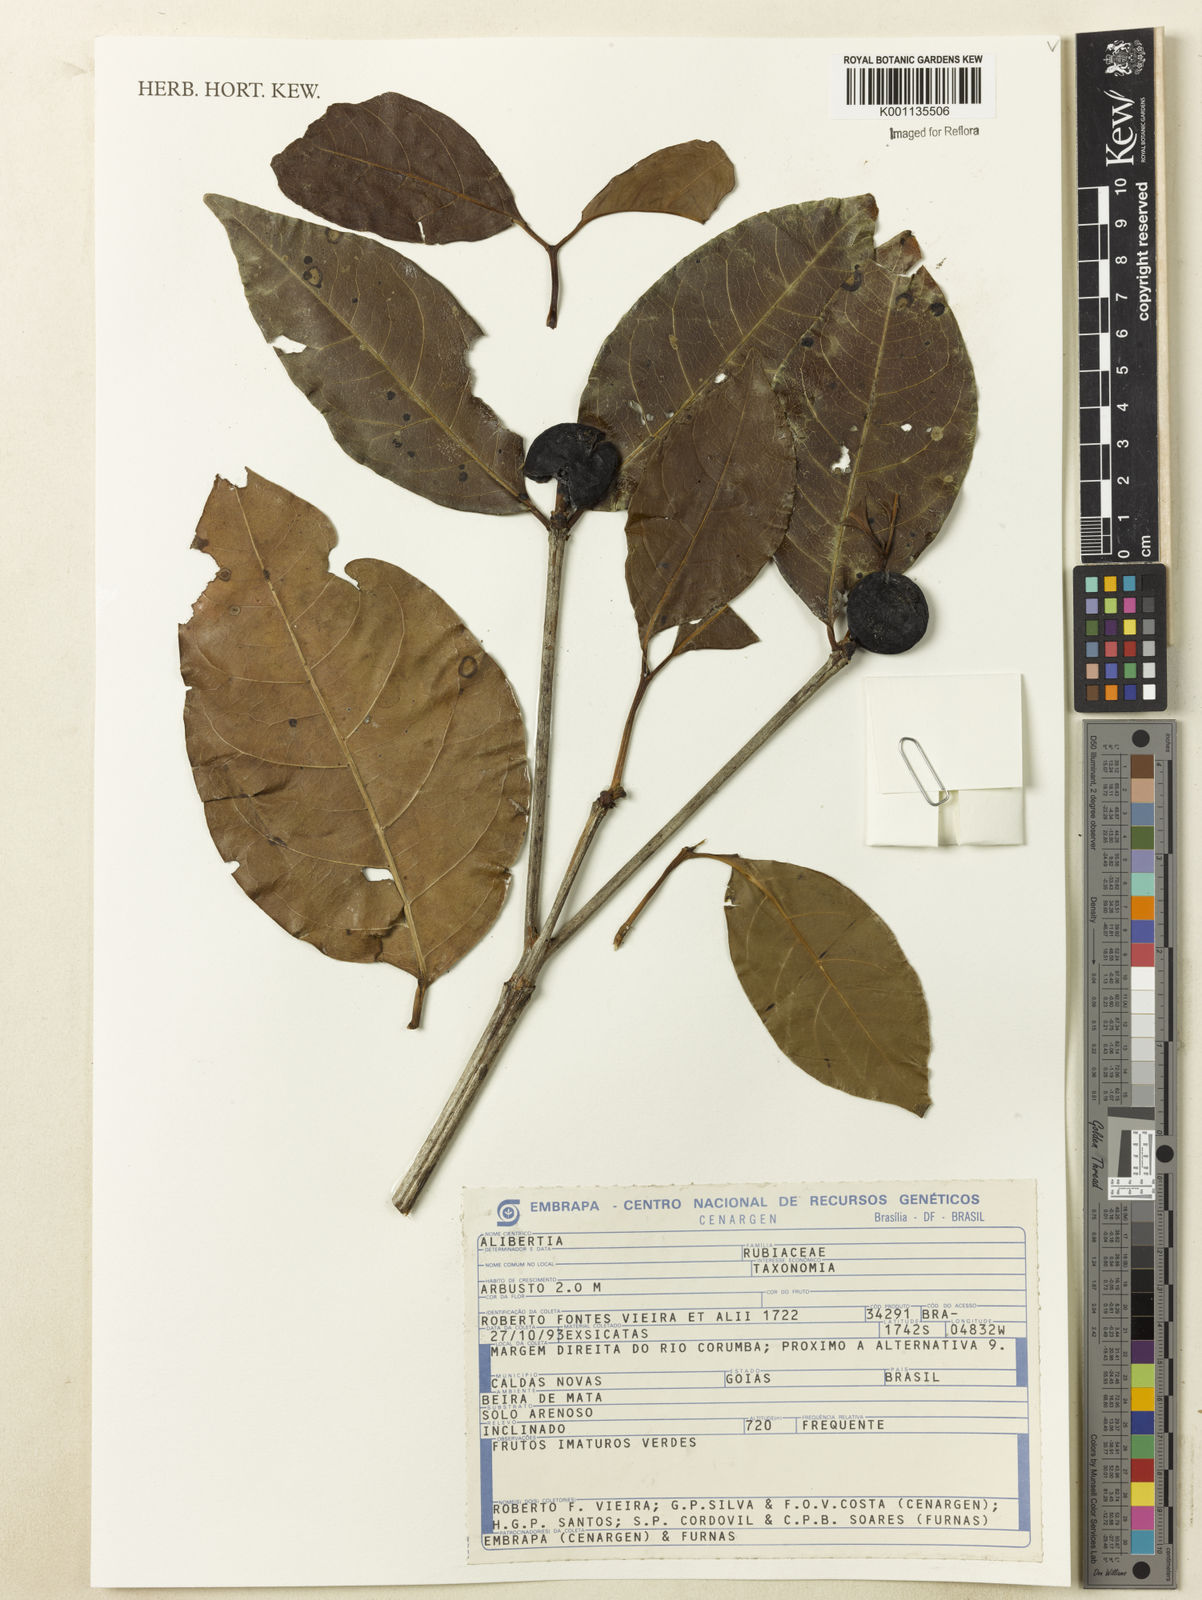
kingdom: Plantae
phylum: Tracheophyta
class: Magnoliopsida
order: Gentianales
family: Rubiaceae
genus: Cordiera
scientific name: Cordiera sessilis
